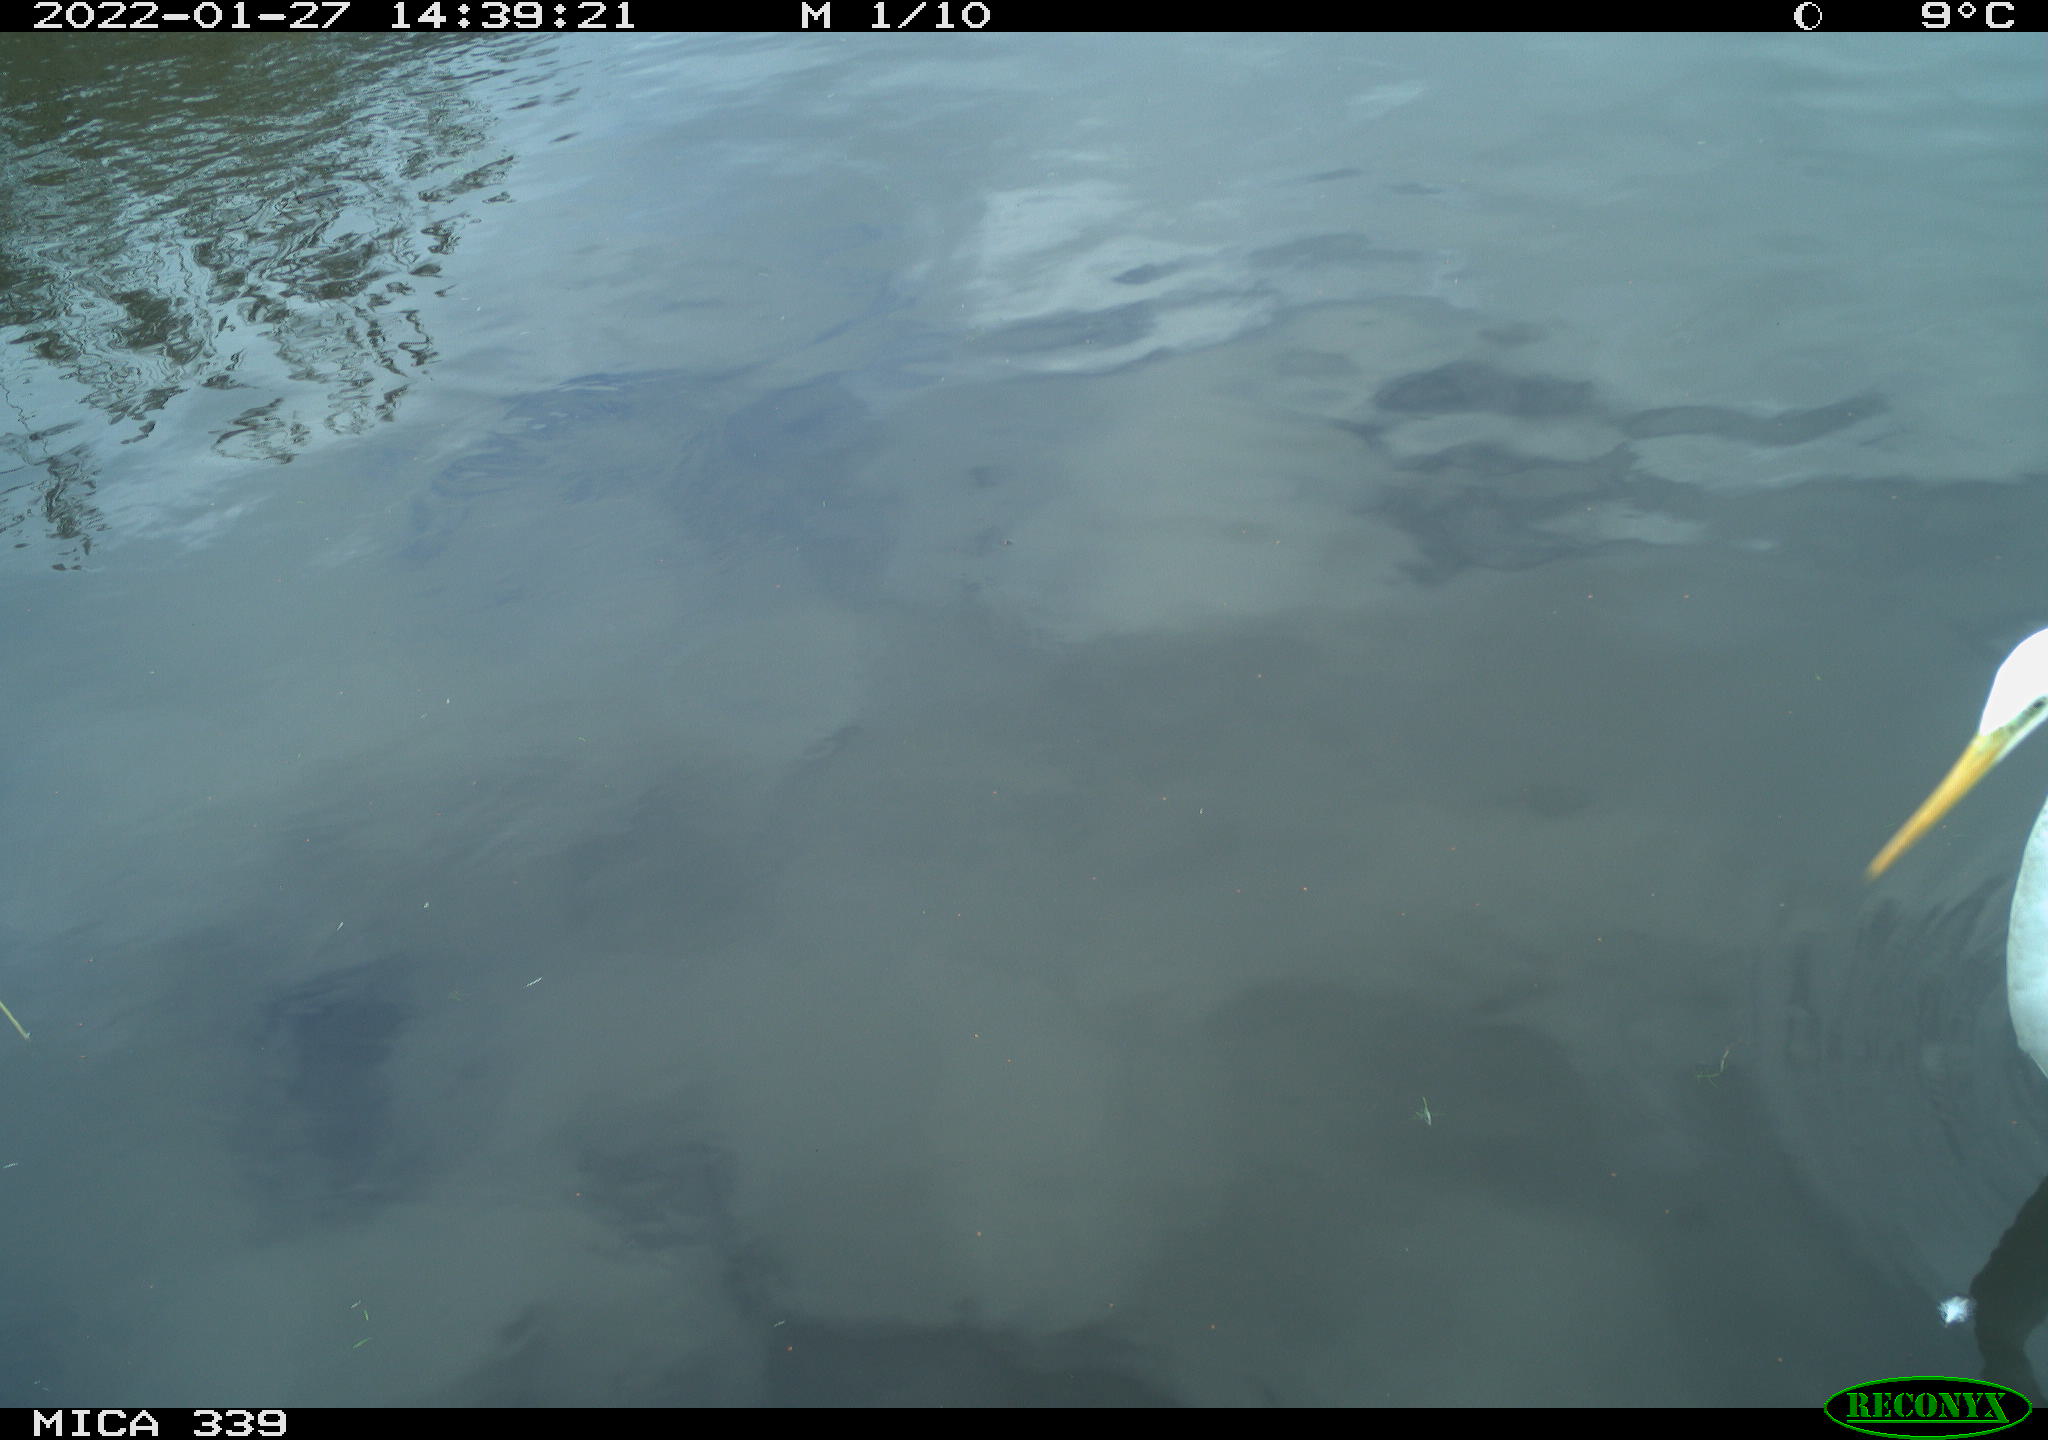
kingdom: Animalia
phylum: Chordata
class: Aves
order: Pelecaniformes
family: Ardeidae
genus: Ardea
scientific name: Ardea alba
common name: Great egret
